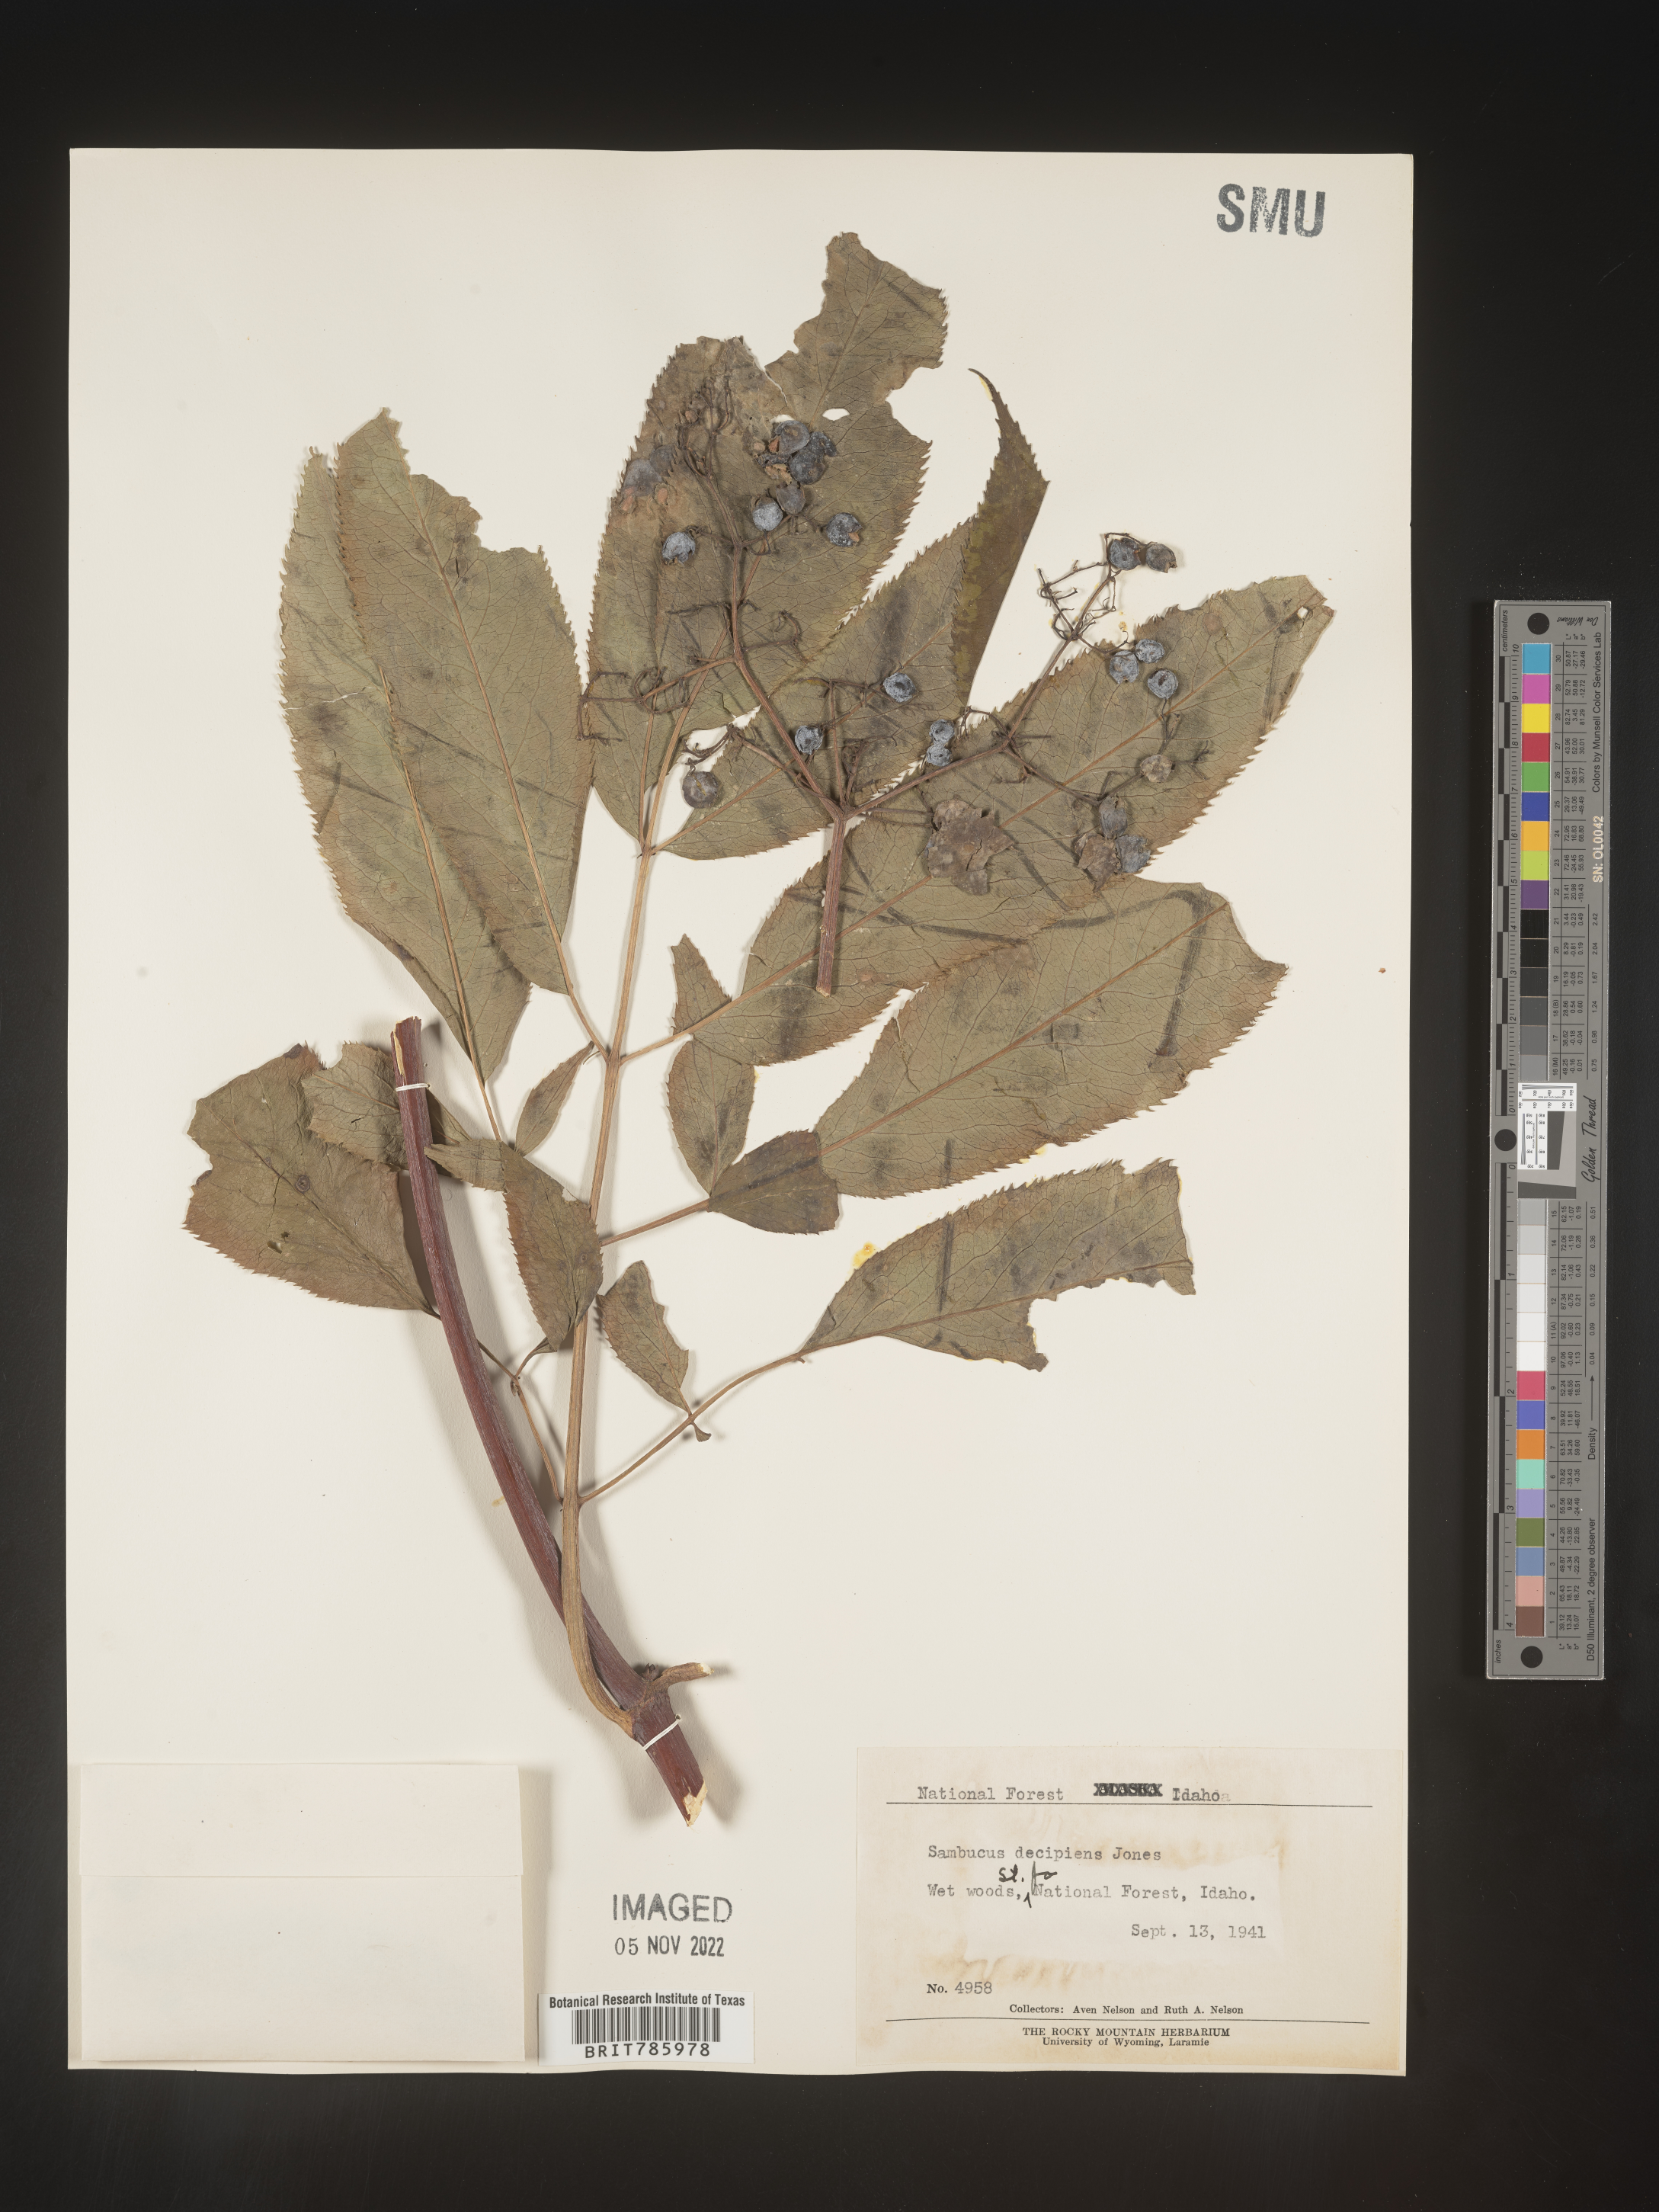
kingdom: Plantae
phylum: Tracheophyta
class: Magnoliopsida
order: Dipsacales
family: Viburnaceae
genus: Sambucus
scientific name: Sambucus
